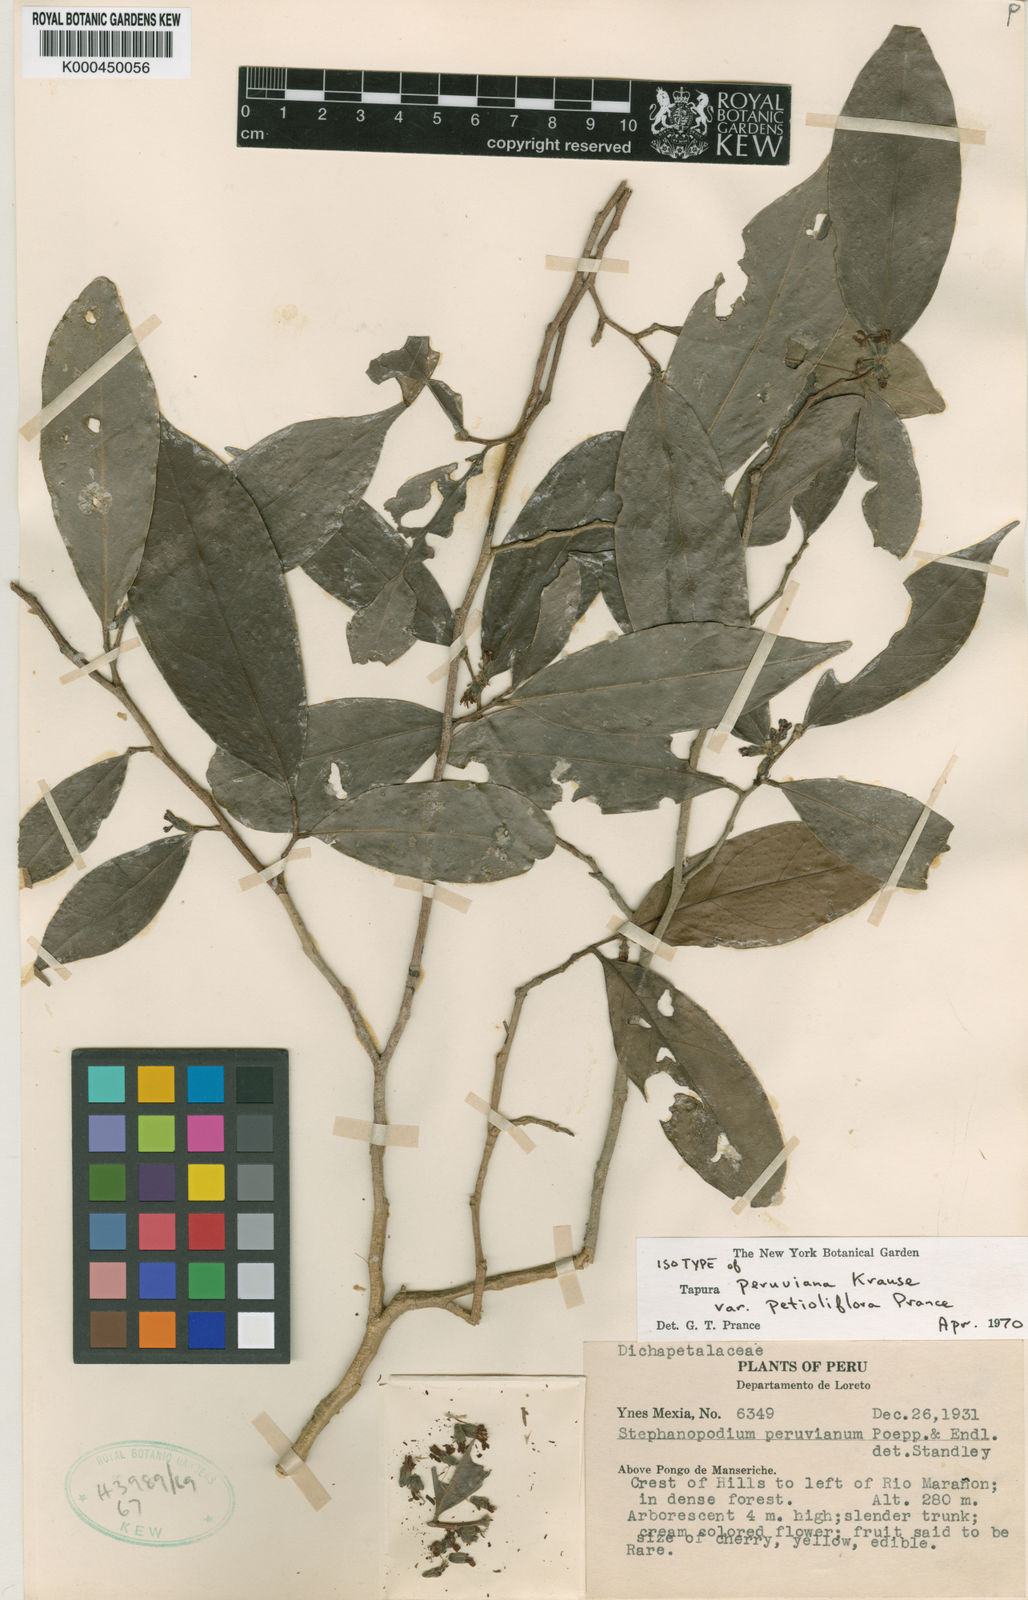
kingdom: Plantae
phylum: Tracheophyta
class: Magnoliopsida
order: Malpighiales
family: Dichapetalaceae
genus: Tapura
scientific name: Tapura peruviana
